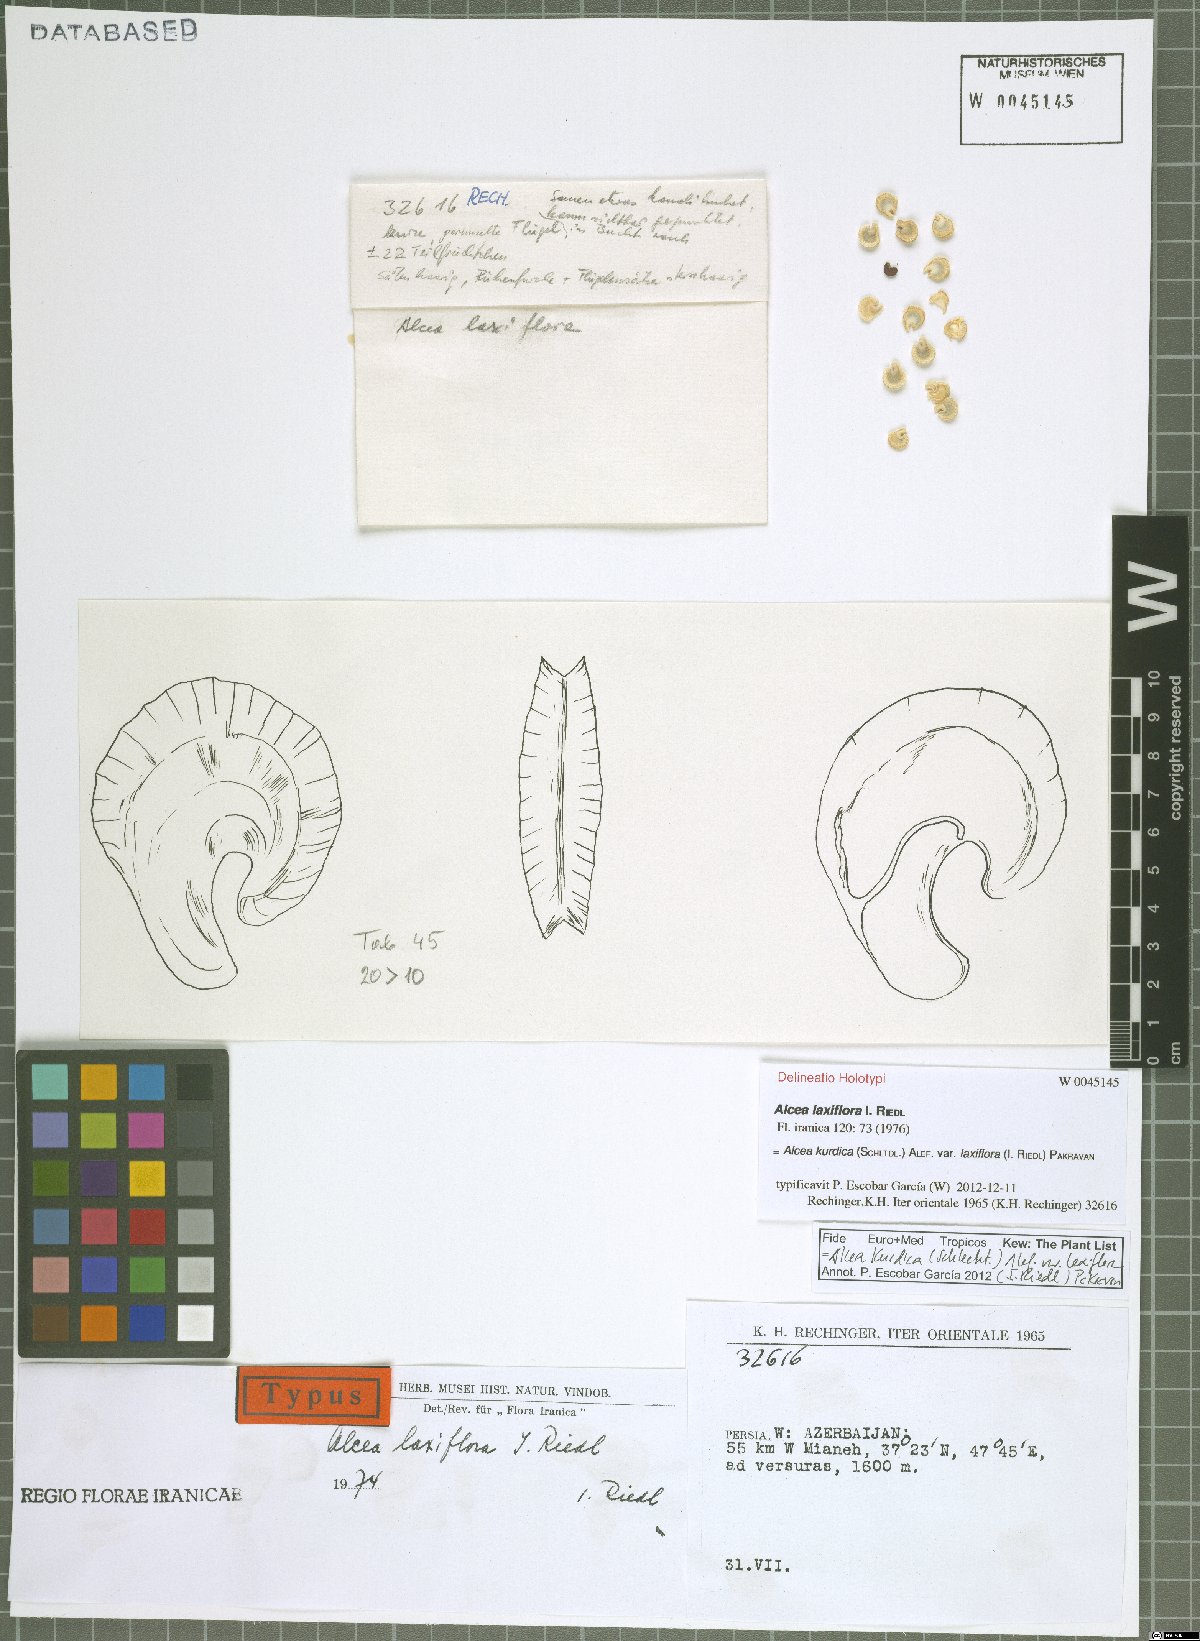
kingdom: Plantae
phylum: Tracheophyta
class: Magnoliopsida
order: Malvales
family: Malvaceae
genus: Alcea
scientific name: Alcea kurdica
